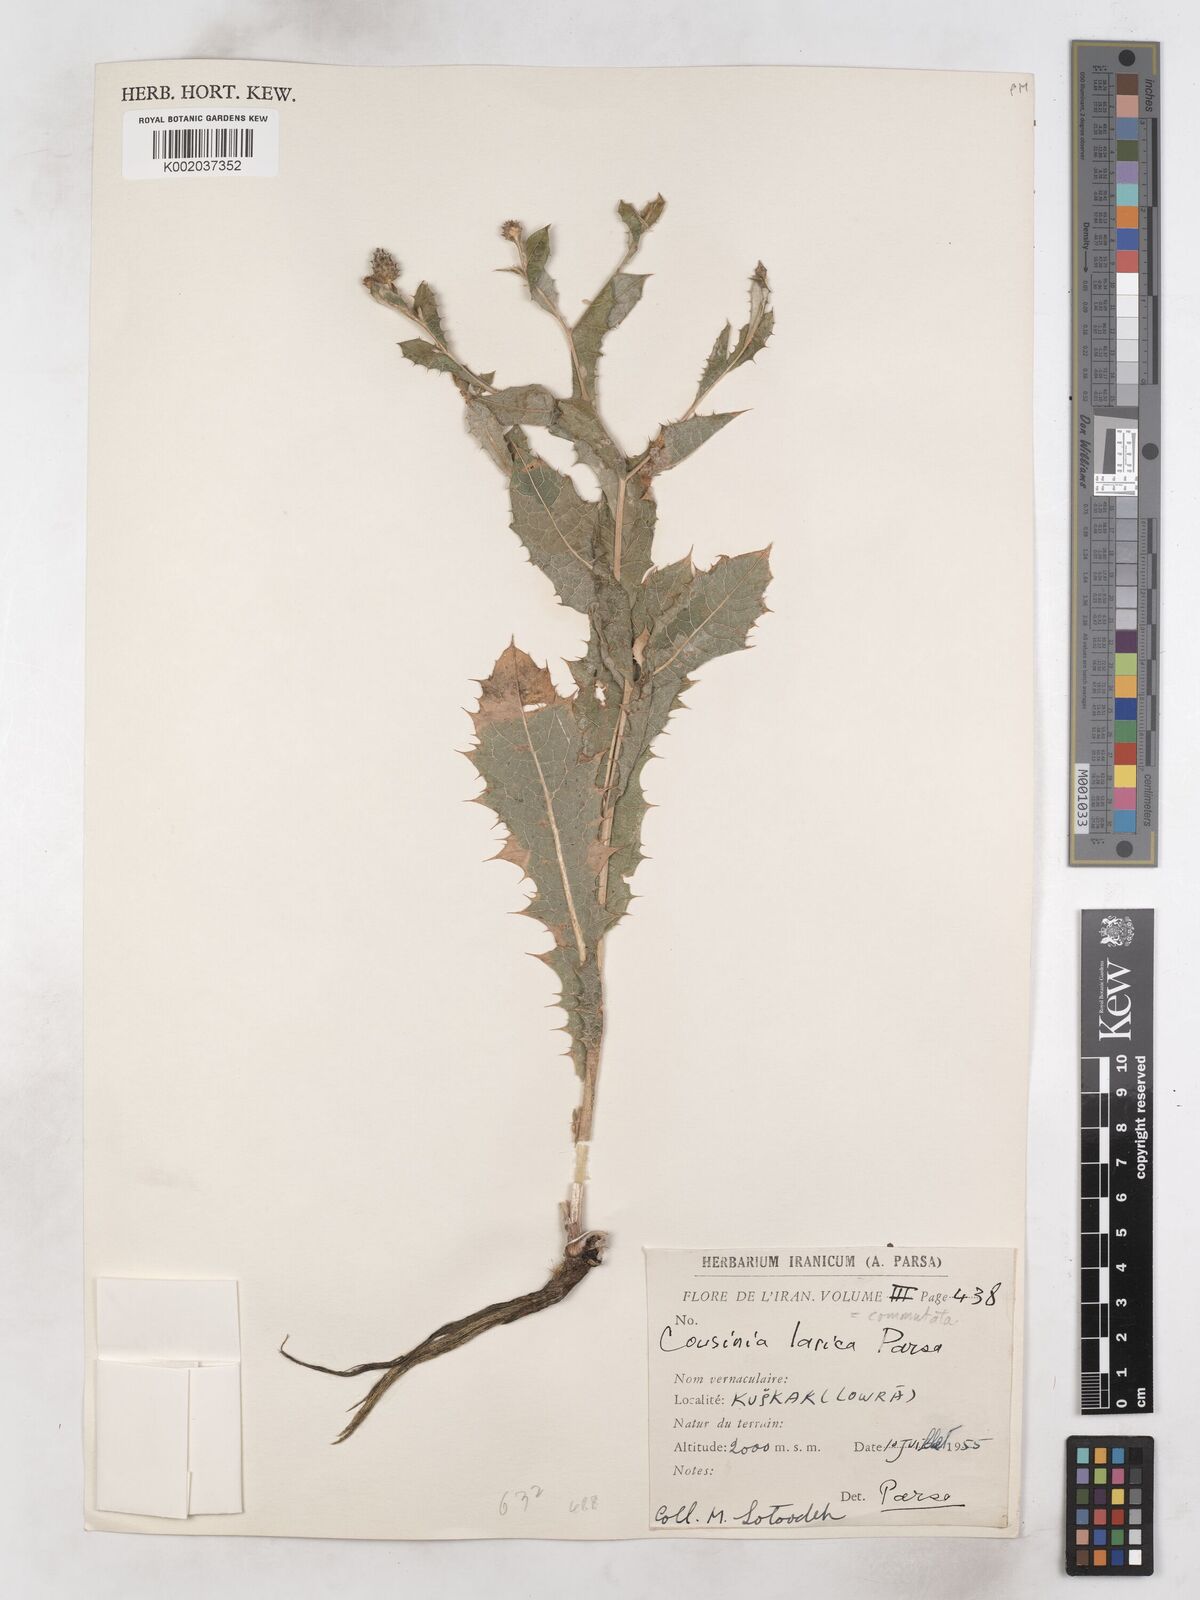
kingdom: Plantae
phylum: Tracheophyta
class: Magnoliopsida
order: Asterales
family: Asteraceae
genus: Cousinia
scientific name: Cousinia commutata
